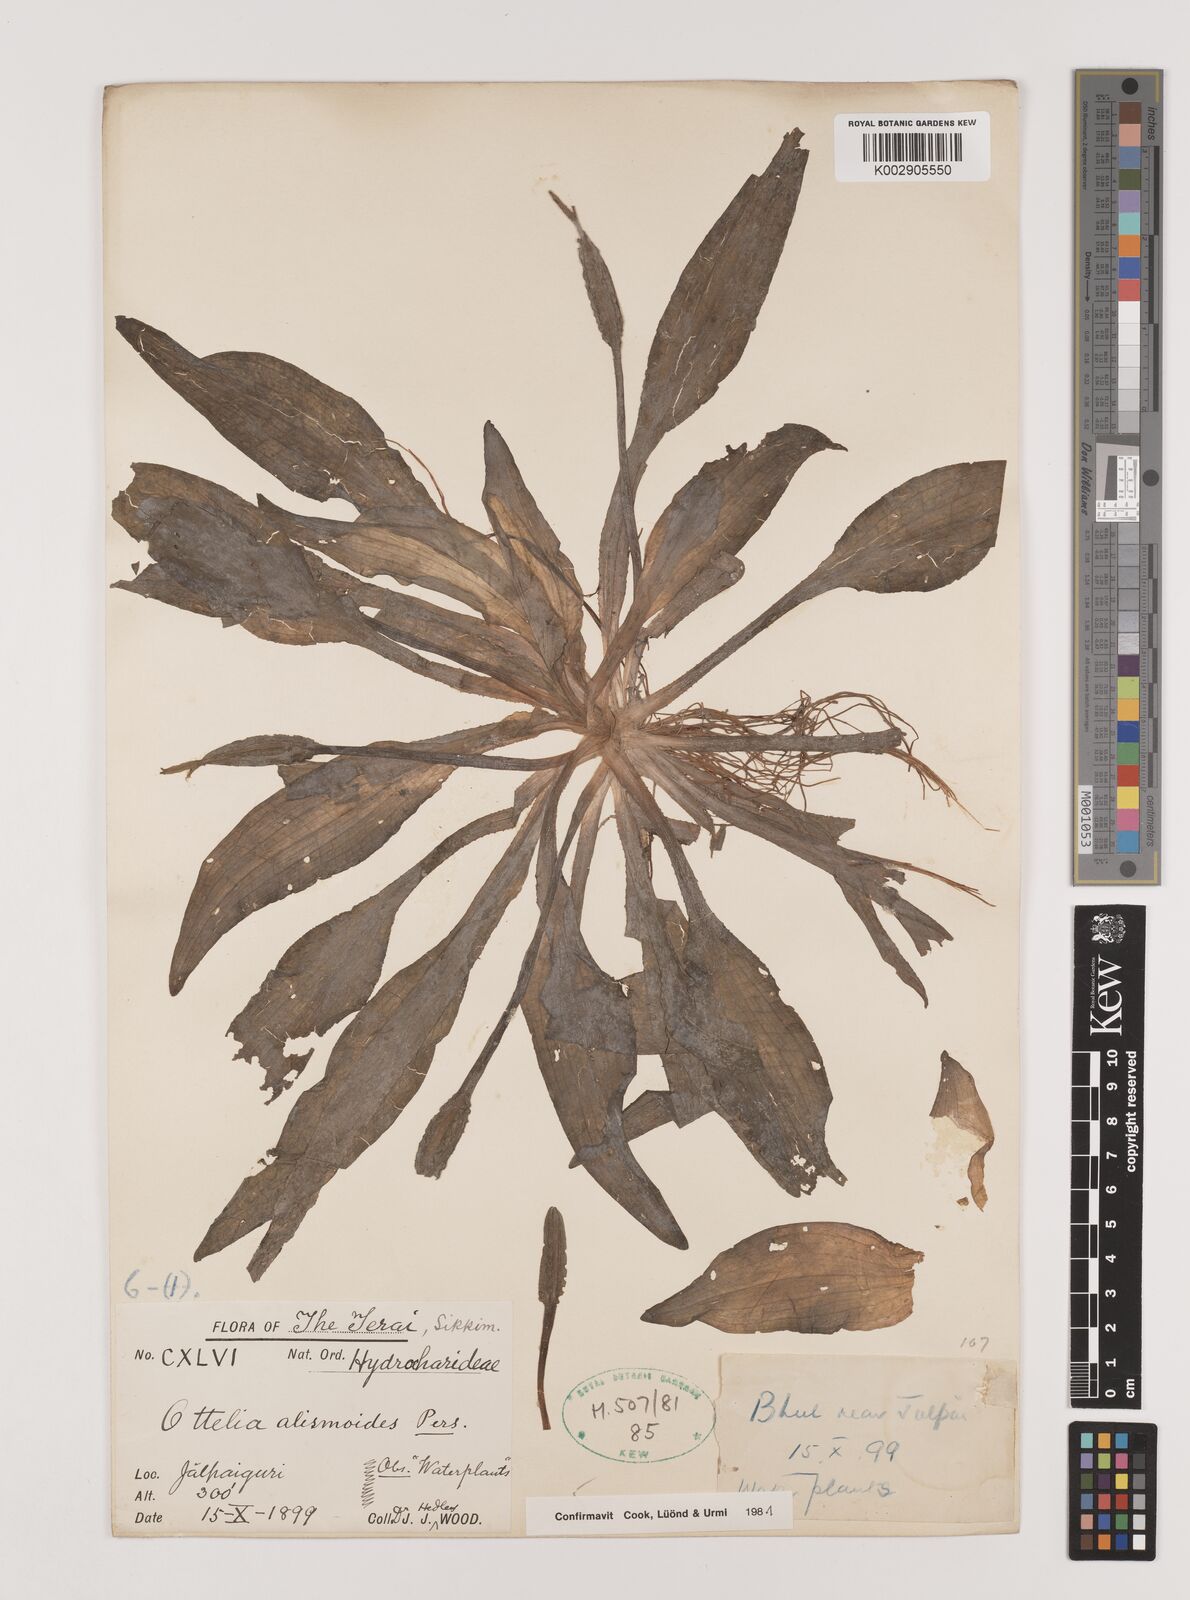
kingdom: Plantae
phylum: Tracheophyta
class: Liliopsida
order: Alismatales
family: Hydrocharitaceae
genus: Ottelia
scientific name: Ottelia alismoides
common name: Duck-lettuce
